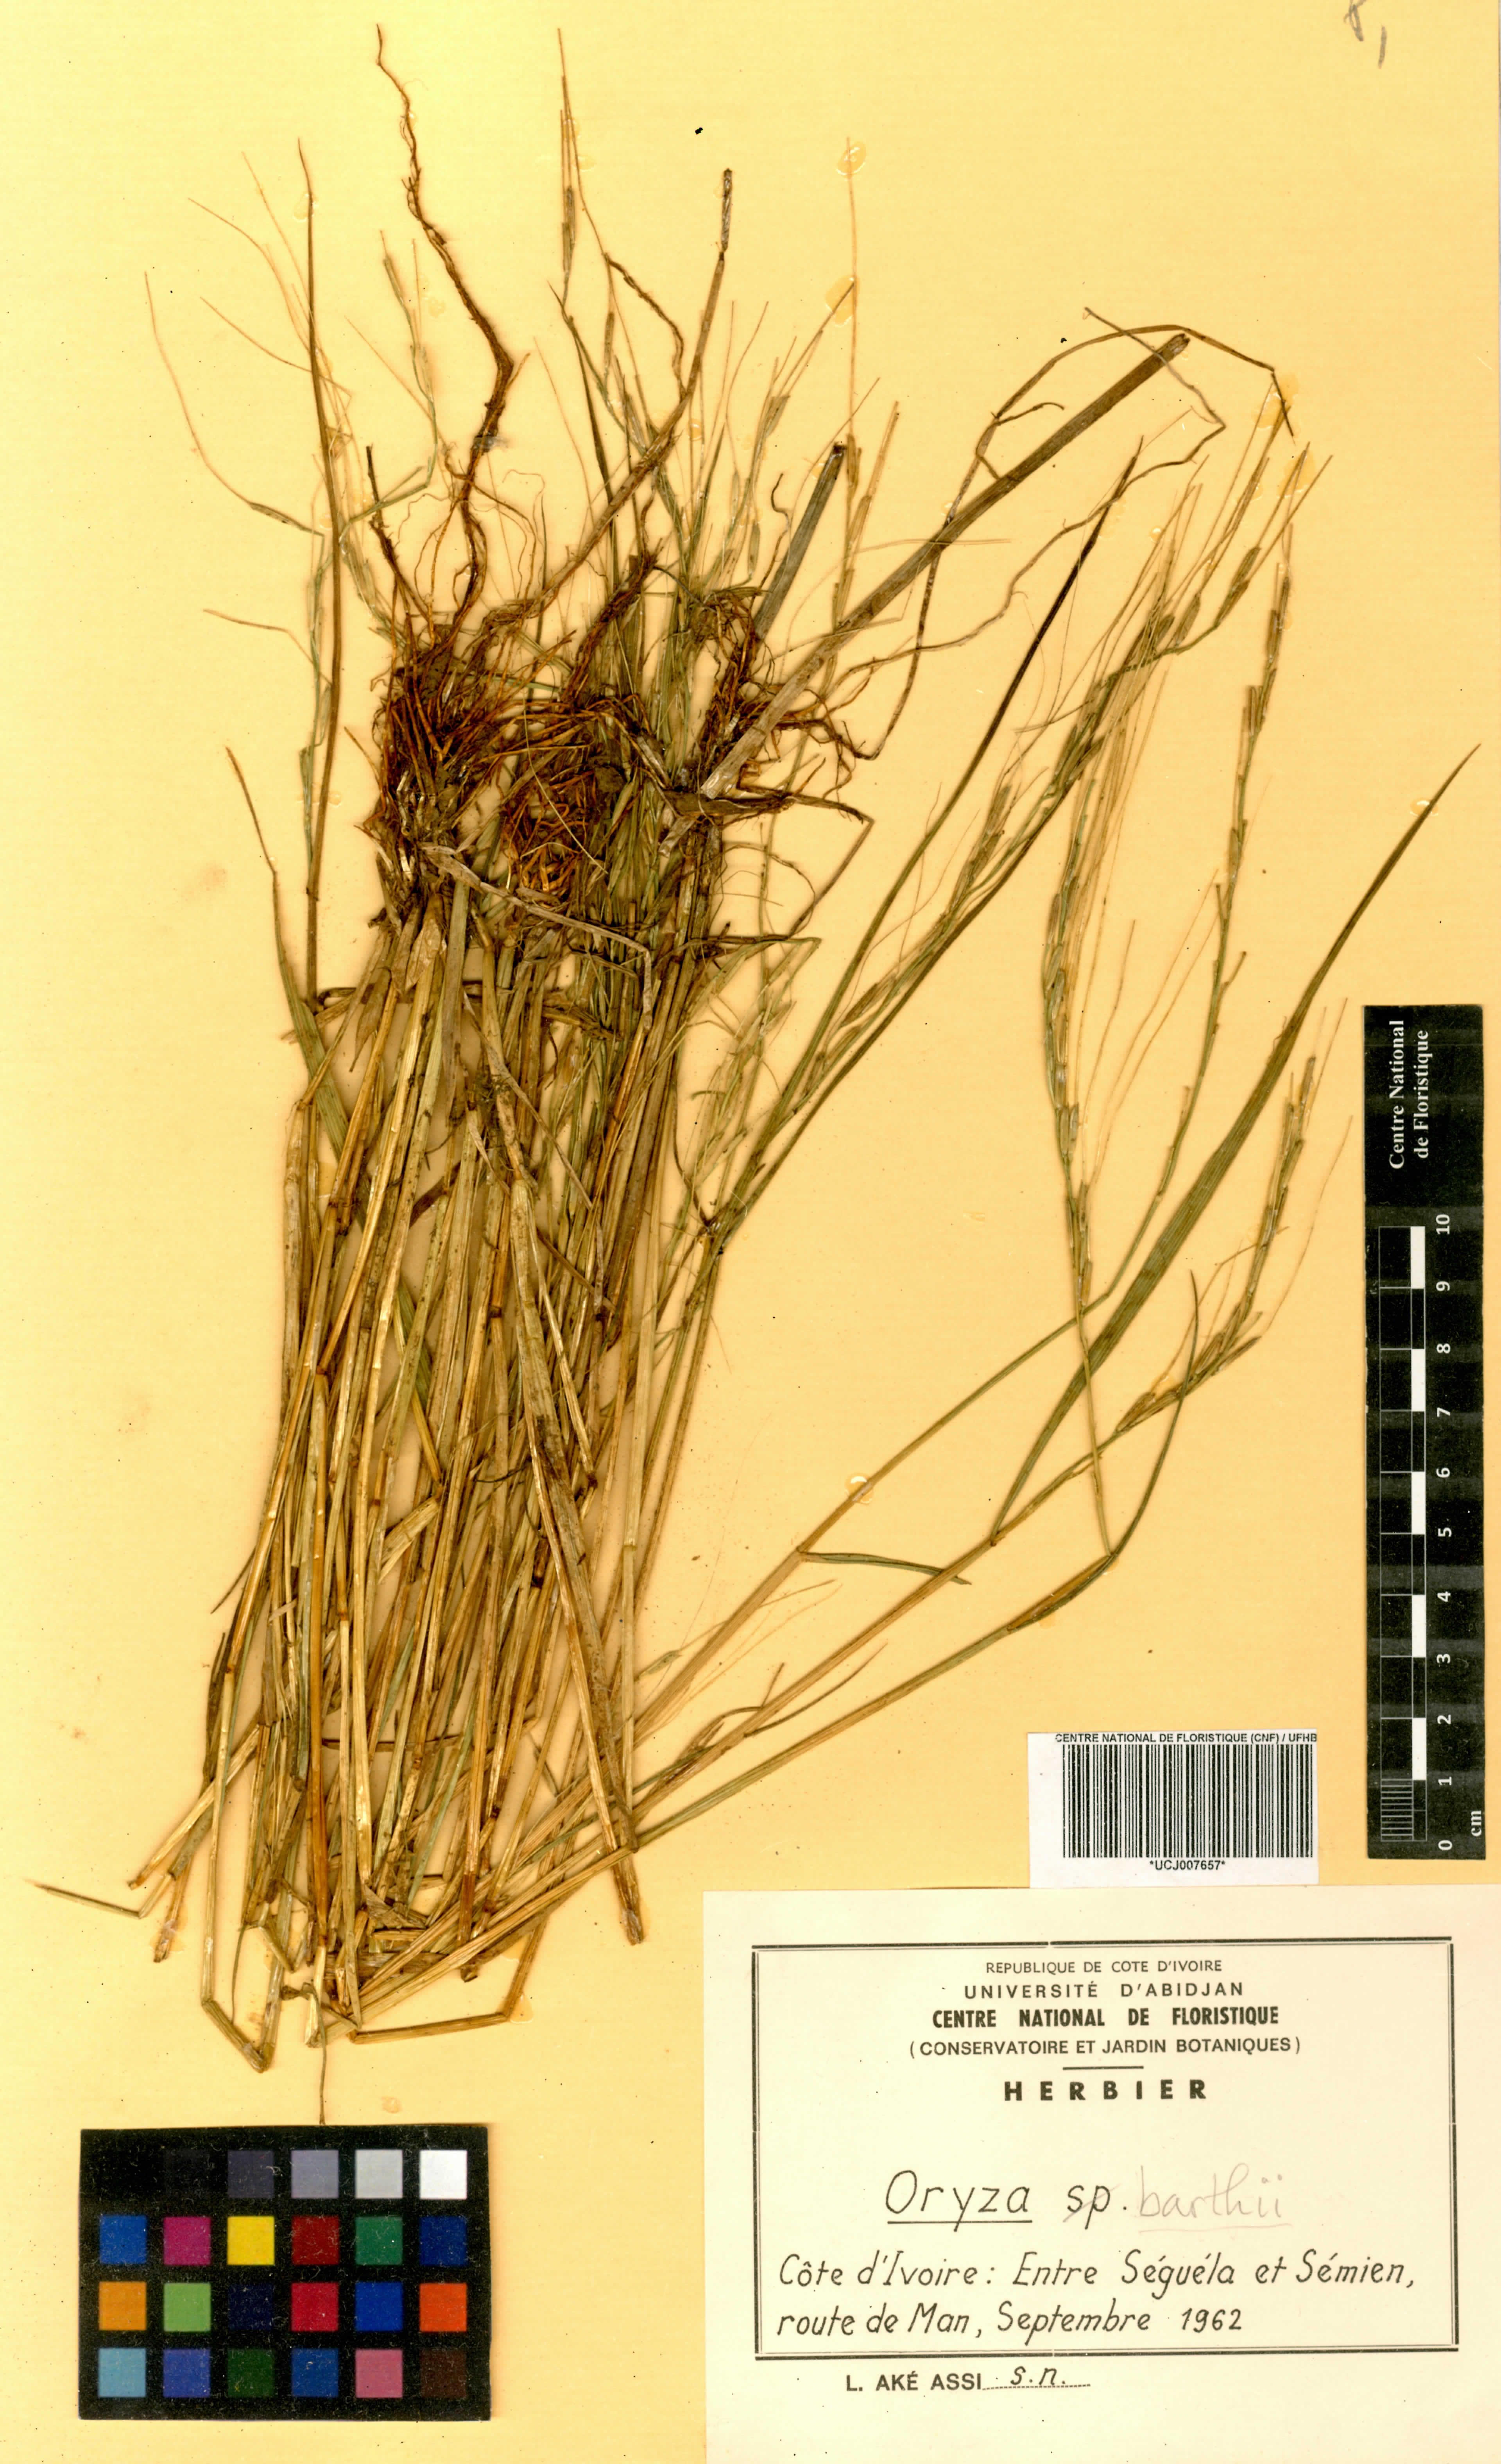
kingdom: Plantae
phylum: Tracheophyta
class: Liliopsida
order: Poales
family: Poaceae
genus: Oryza
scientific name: Oryza barthii
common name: Wild rice
